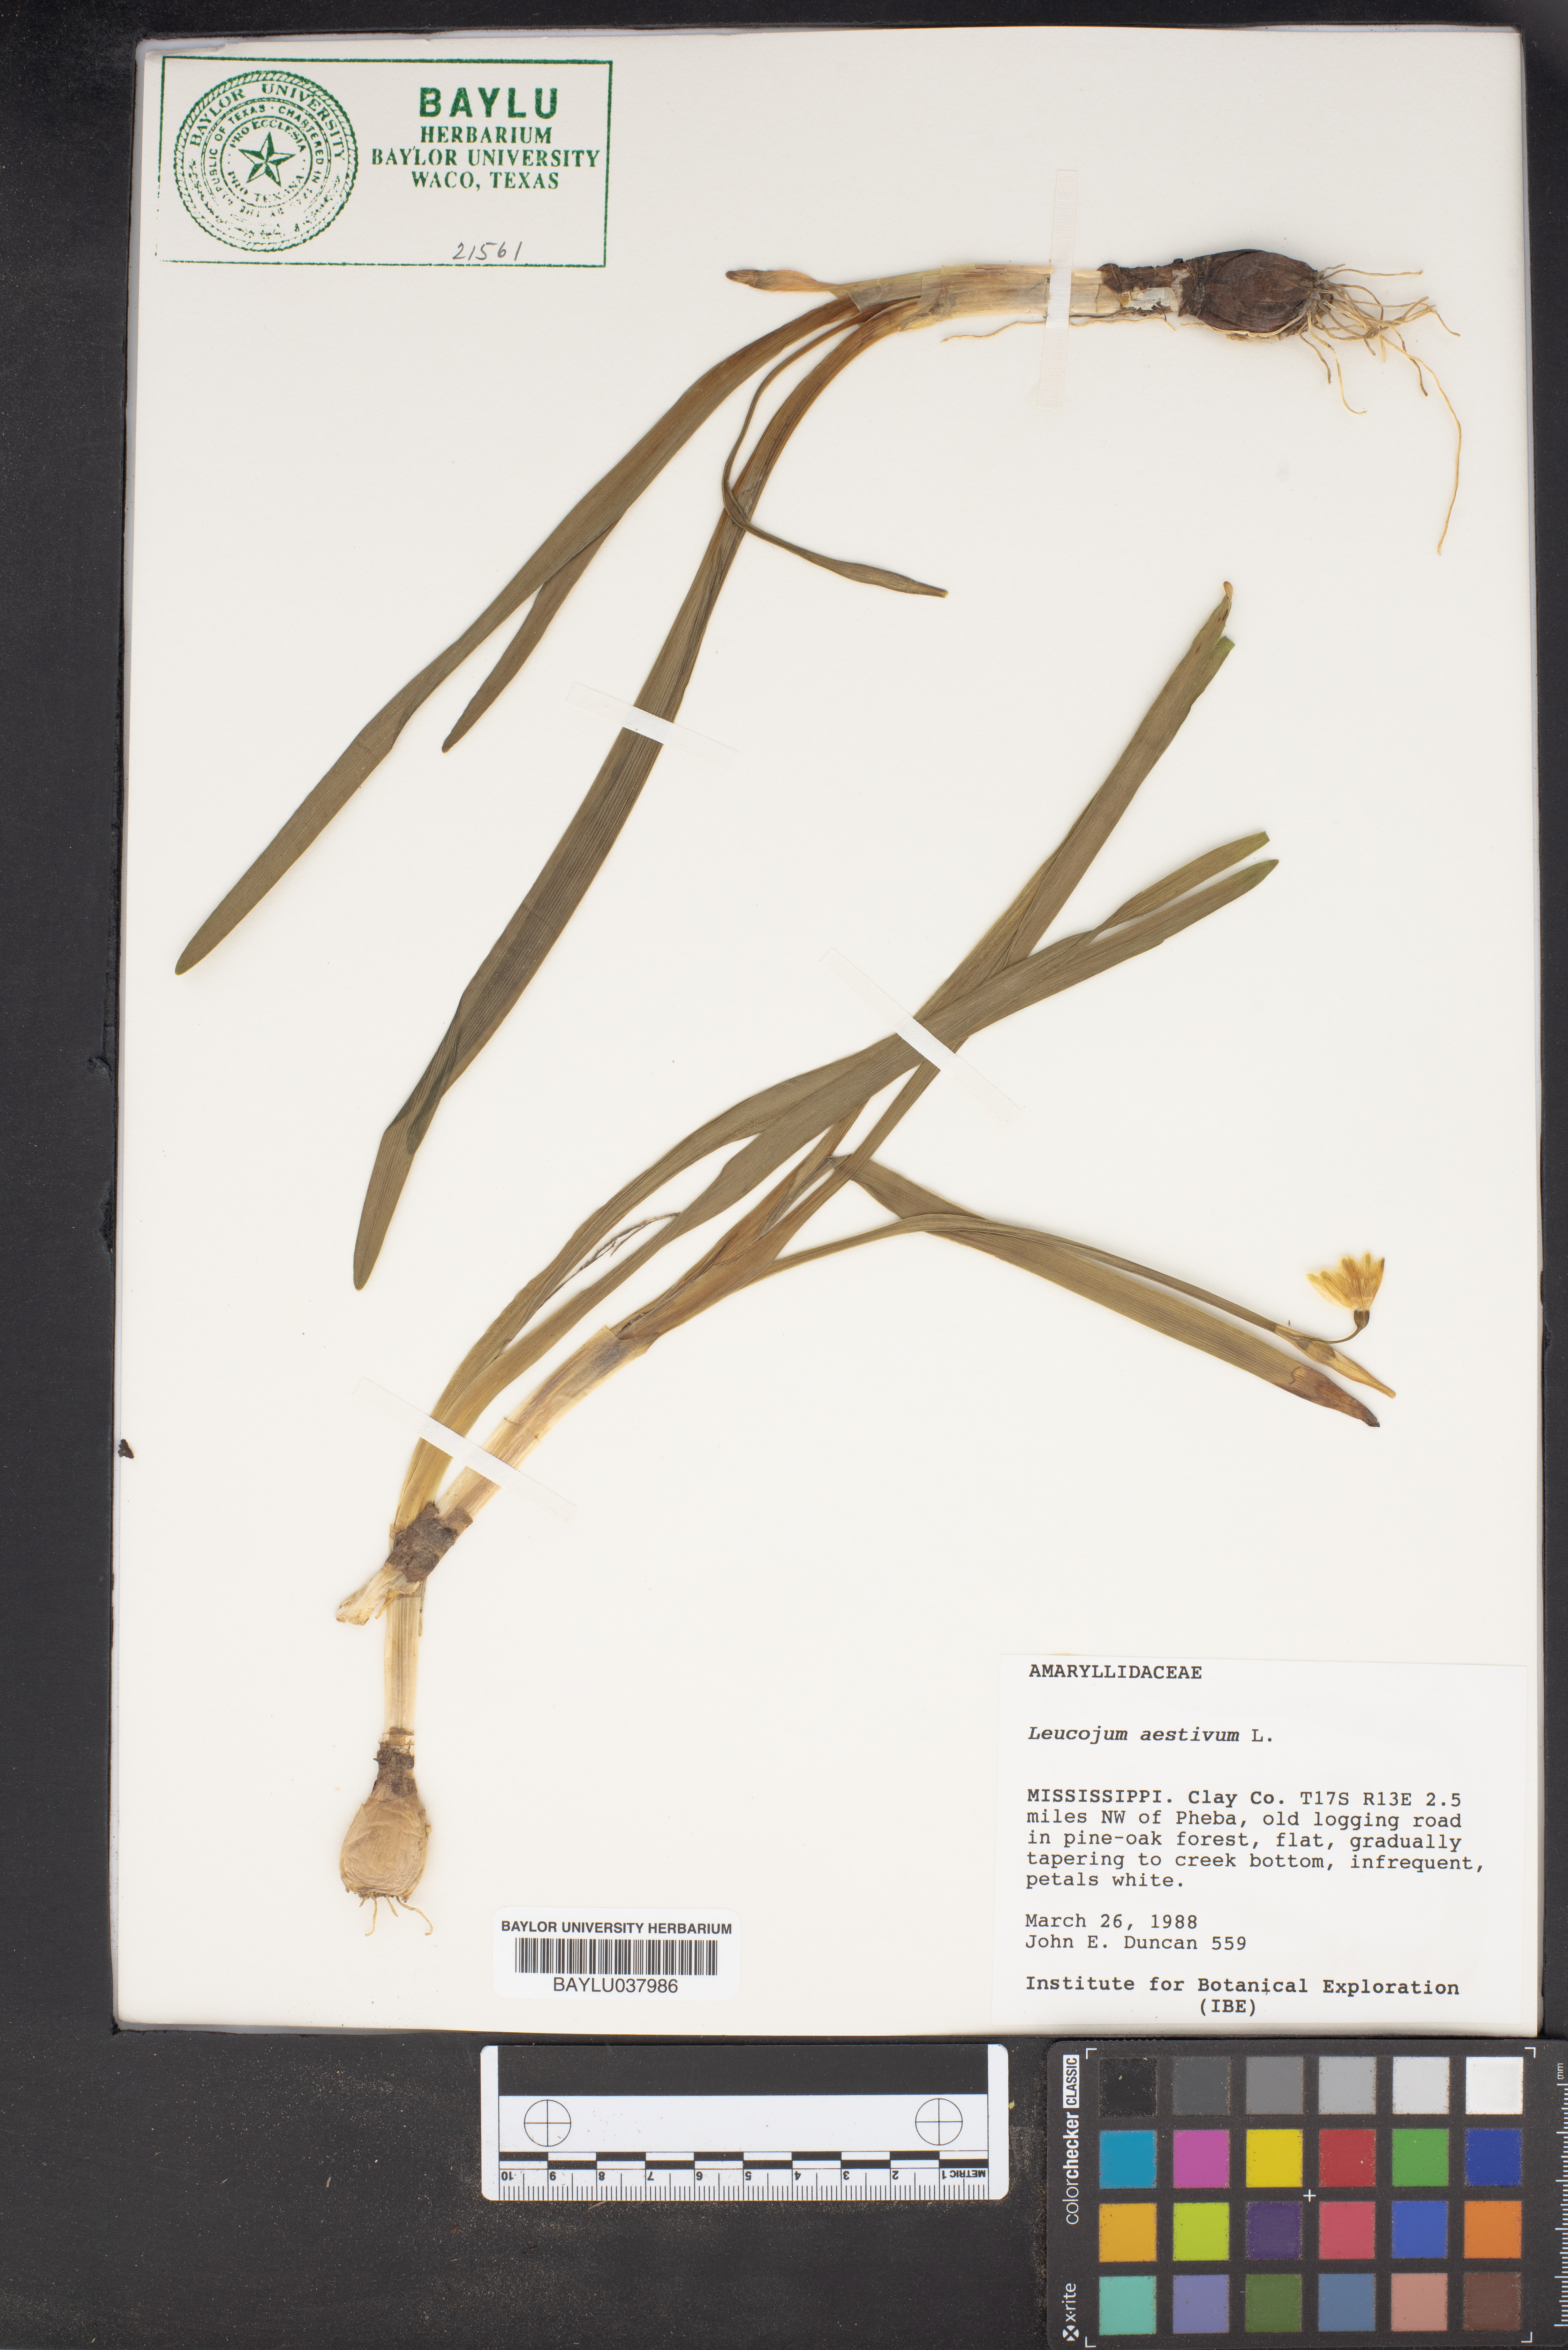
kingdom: Plantae
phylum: Tracheophyta
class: Liliopsida
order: Asparagales
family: Amaryllidaceae
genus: Leucojum
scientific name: Leucojum aestivum
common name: Summer snowflake
